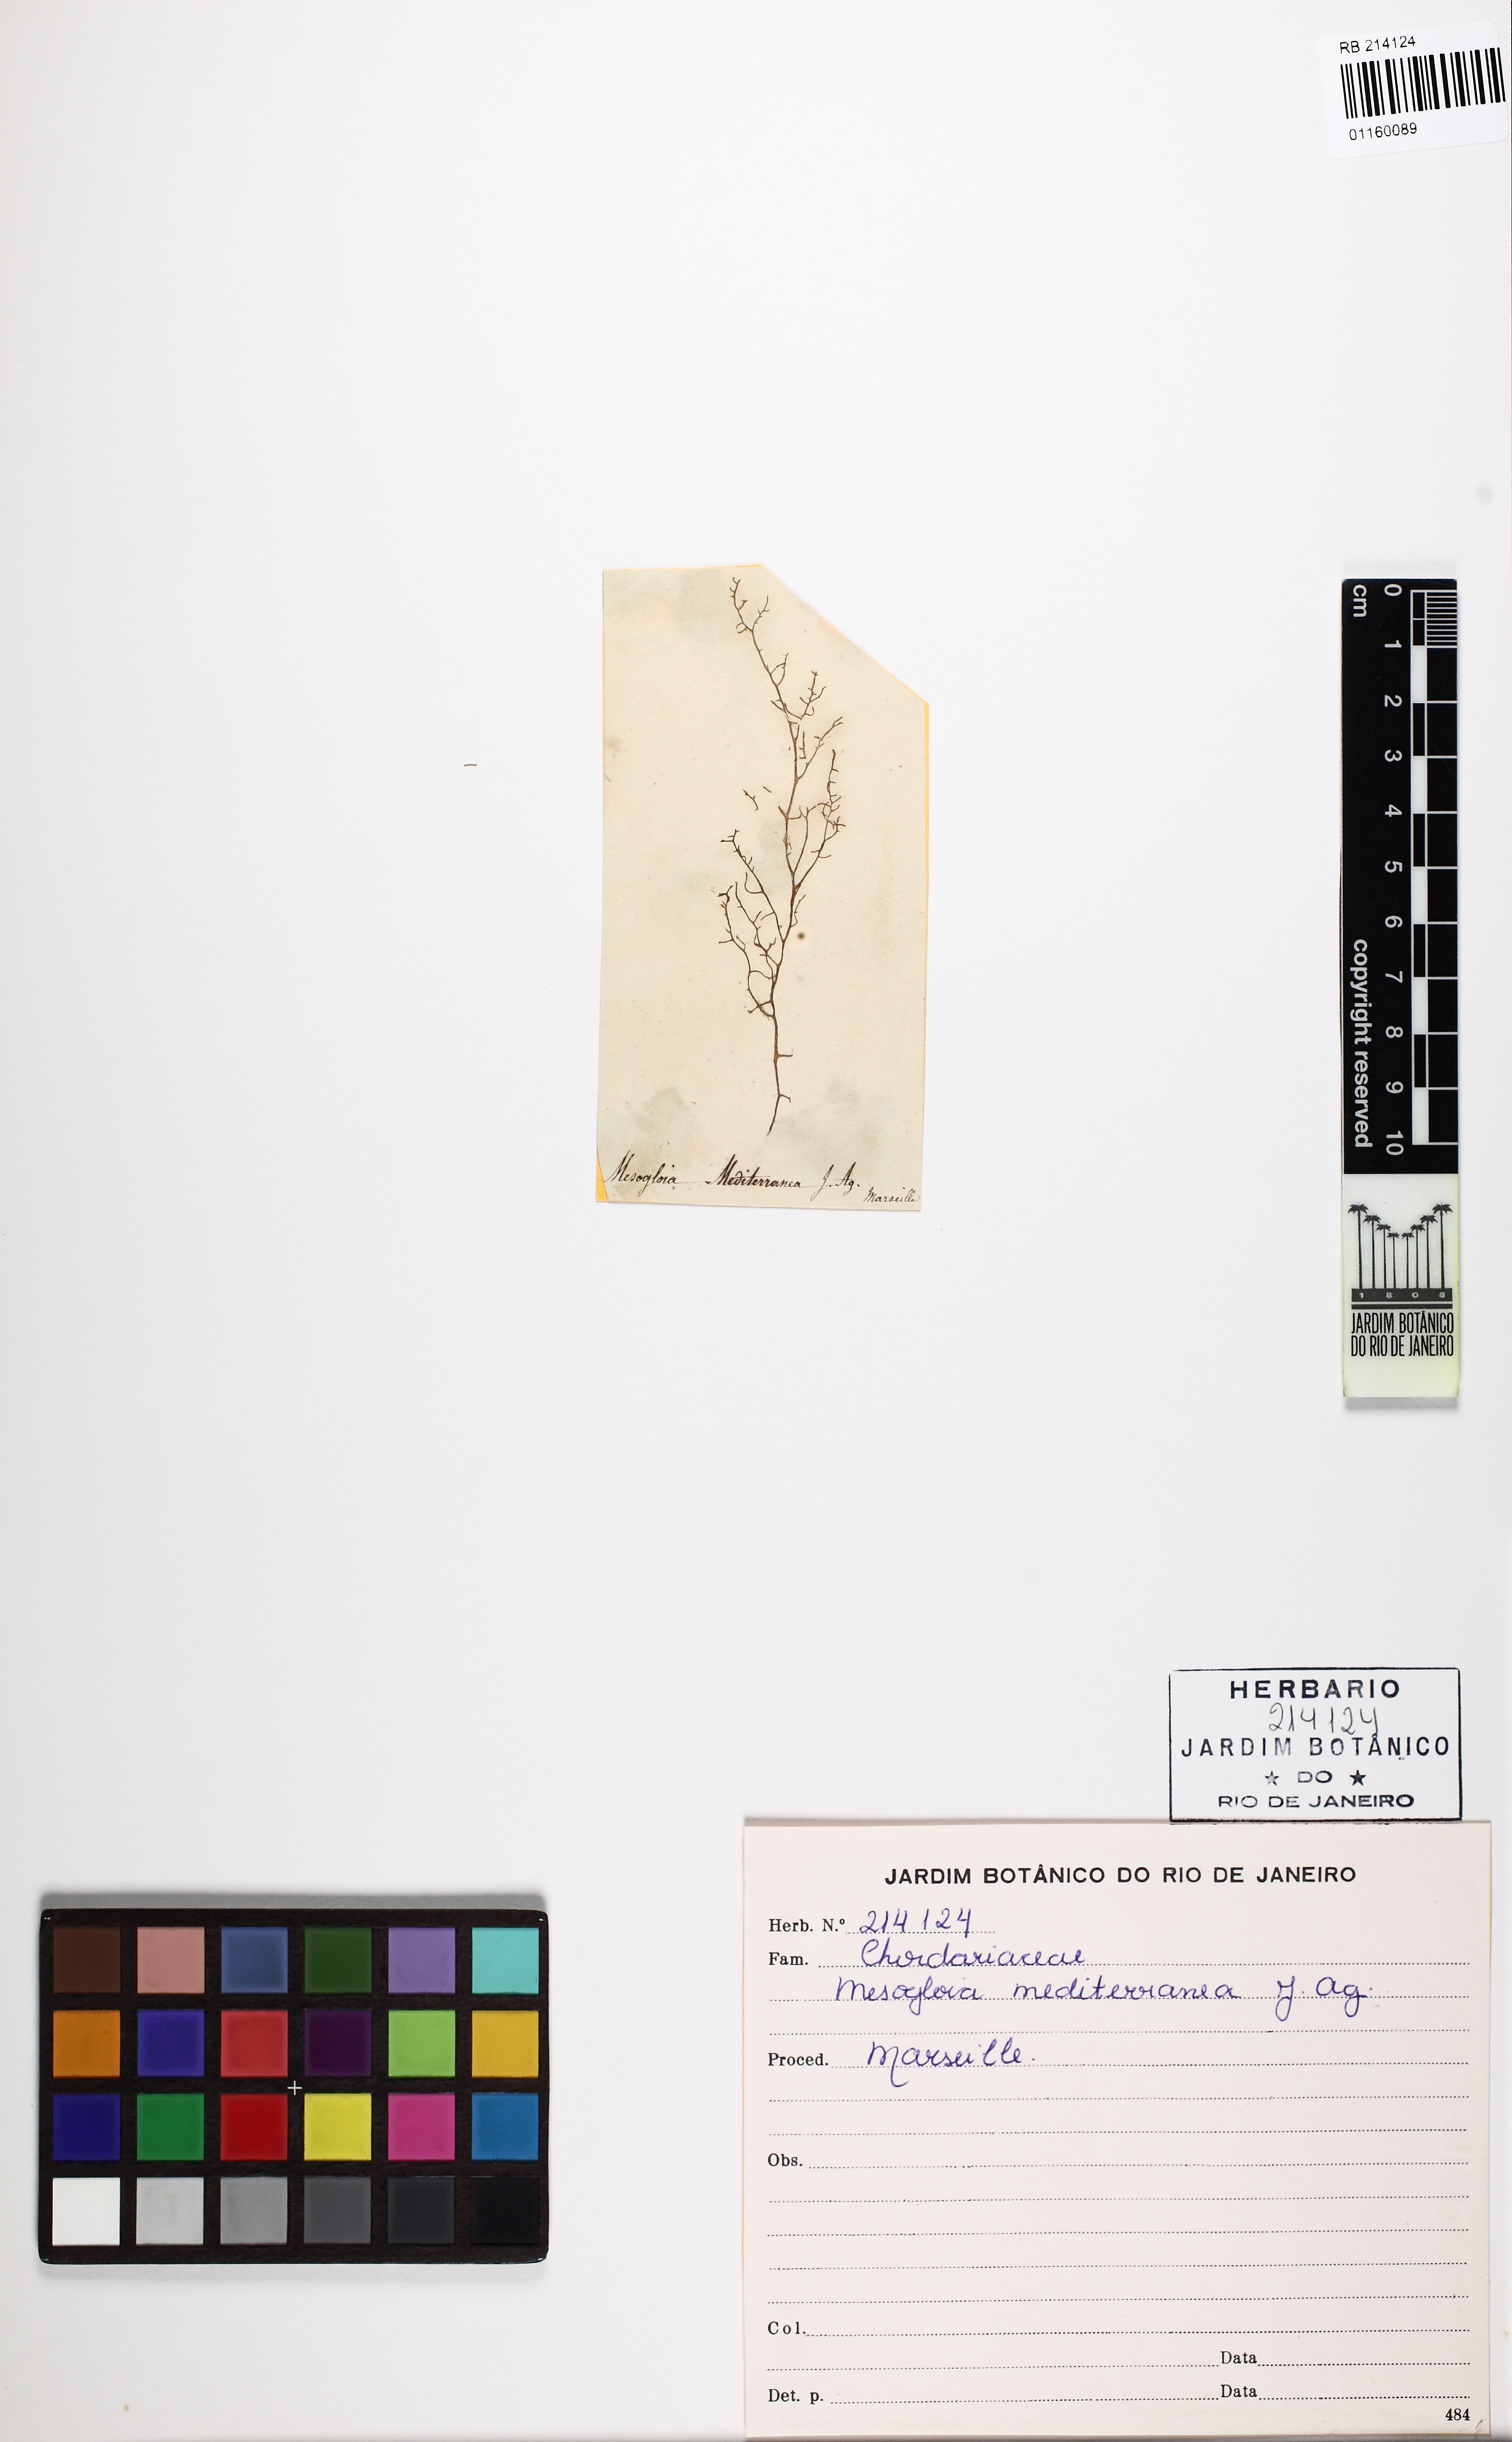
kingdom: Chromista
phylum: Ochrophyta
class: Phaeophyceae
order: Ectocarpales
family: Chordariaceae
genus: Mesogloia
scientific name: Mesogloia mediterranea
